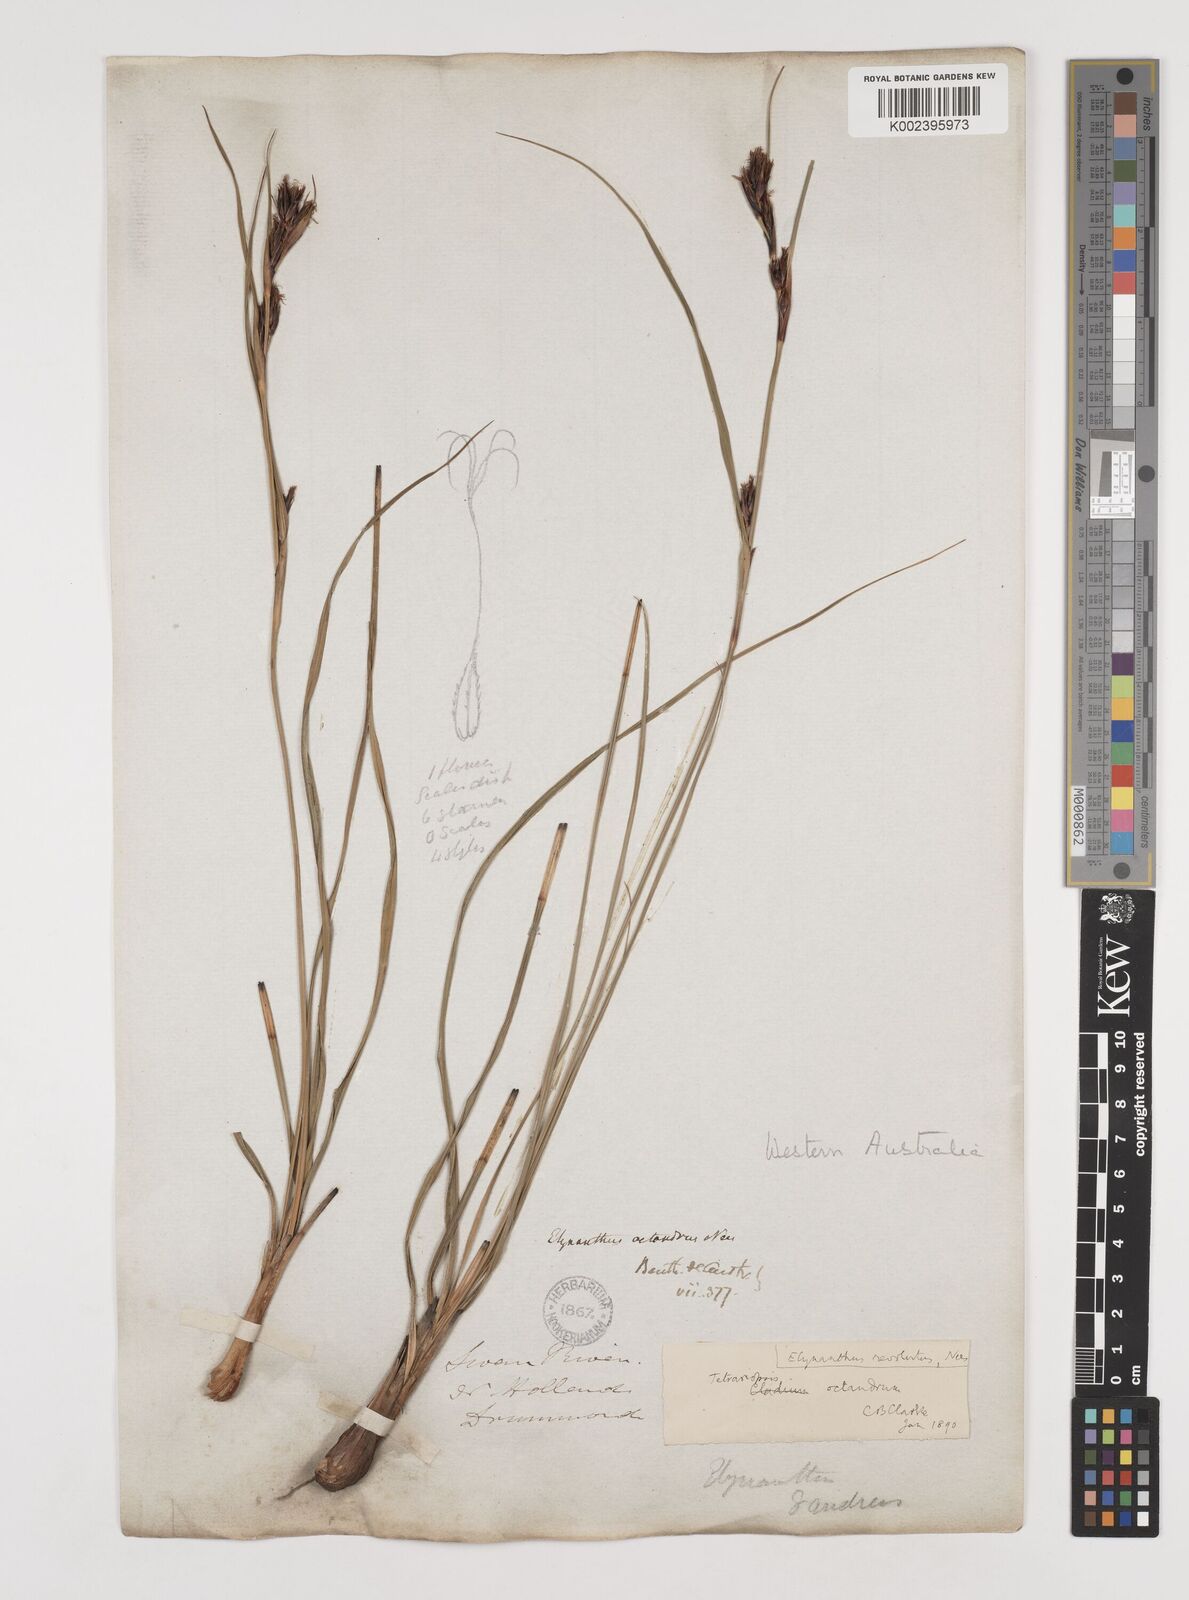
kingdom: Plantae
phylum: Tracheophyta
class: Liliopsida
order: Poales
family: Cyperaceae
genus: Tetraria
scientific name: Tetraria octandra
